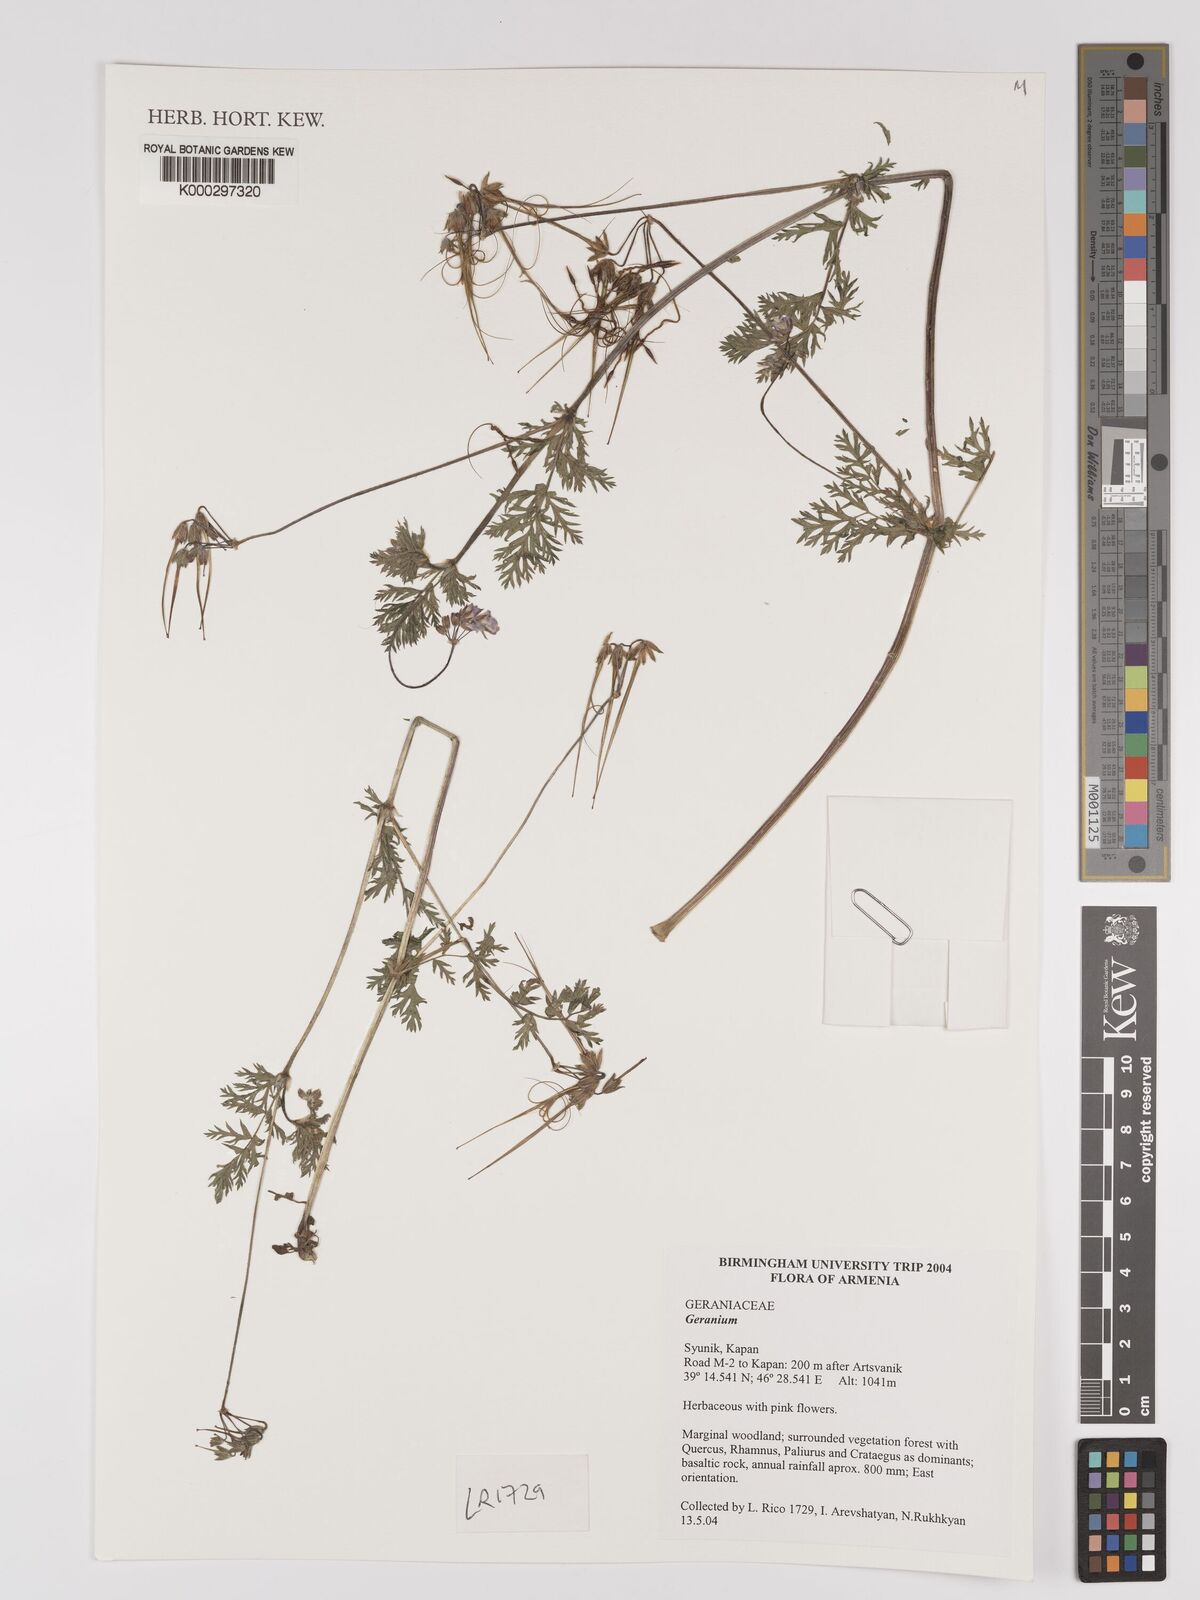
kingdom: Plantae
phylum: Tracheophyta
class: Magnoliopsida
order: Geraniales
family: Geraniaceae
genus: Geranium
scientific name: Geranium
